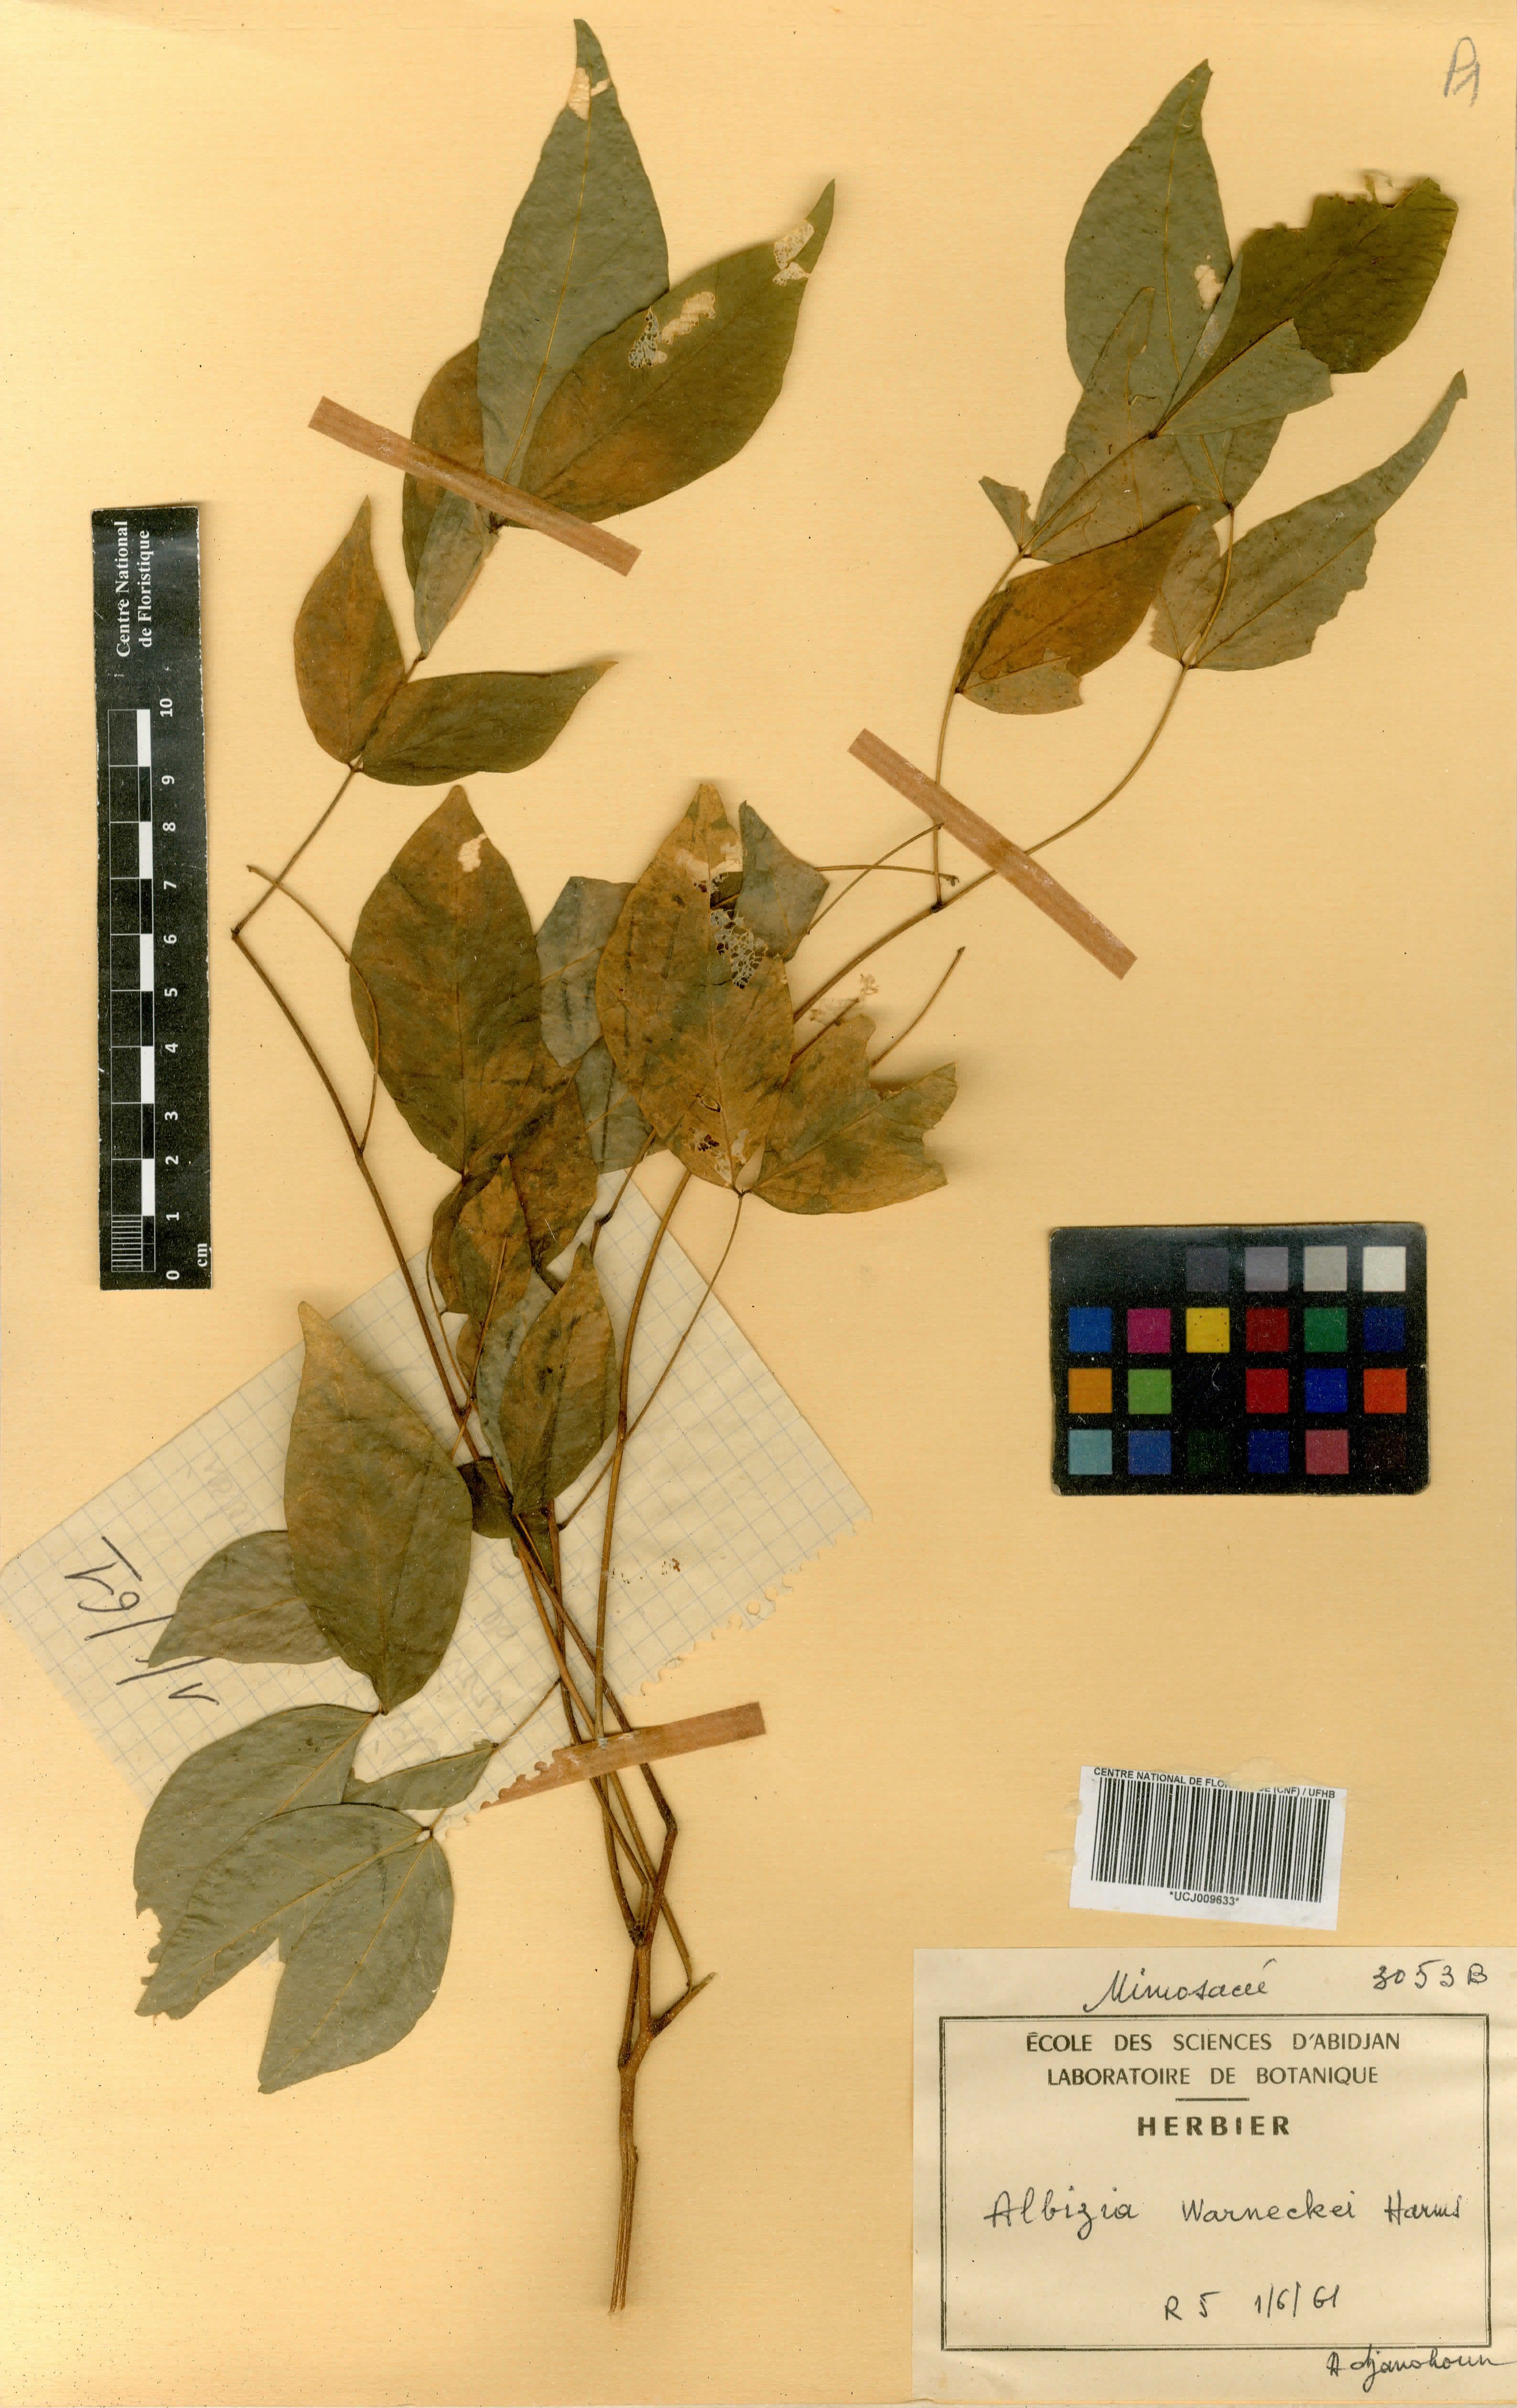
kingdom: Plantae
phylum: Tracheophyta
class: Magnoliopsida
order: Fabales
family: Fabaceae
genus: Albizia
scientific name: Albizia glaberrima
